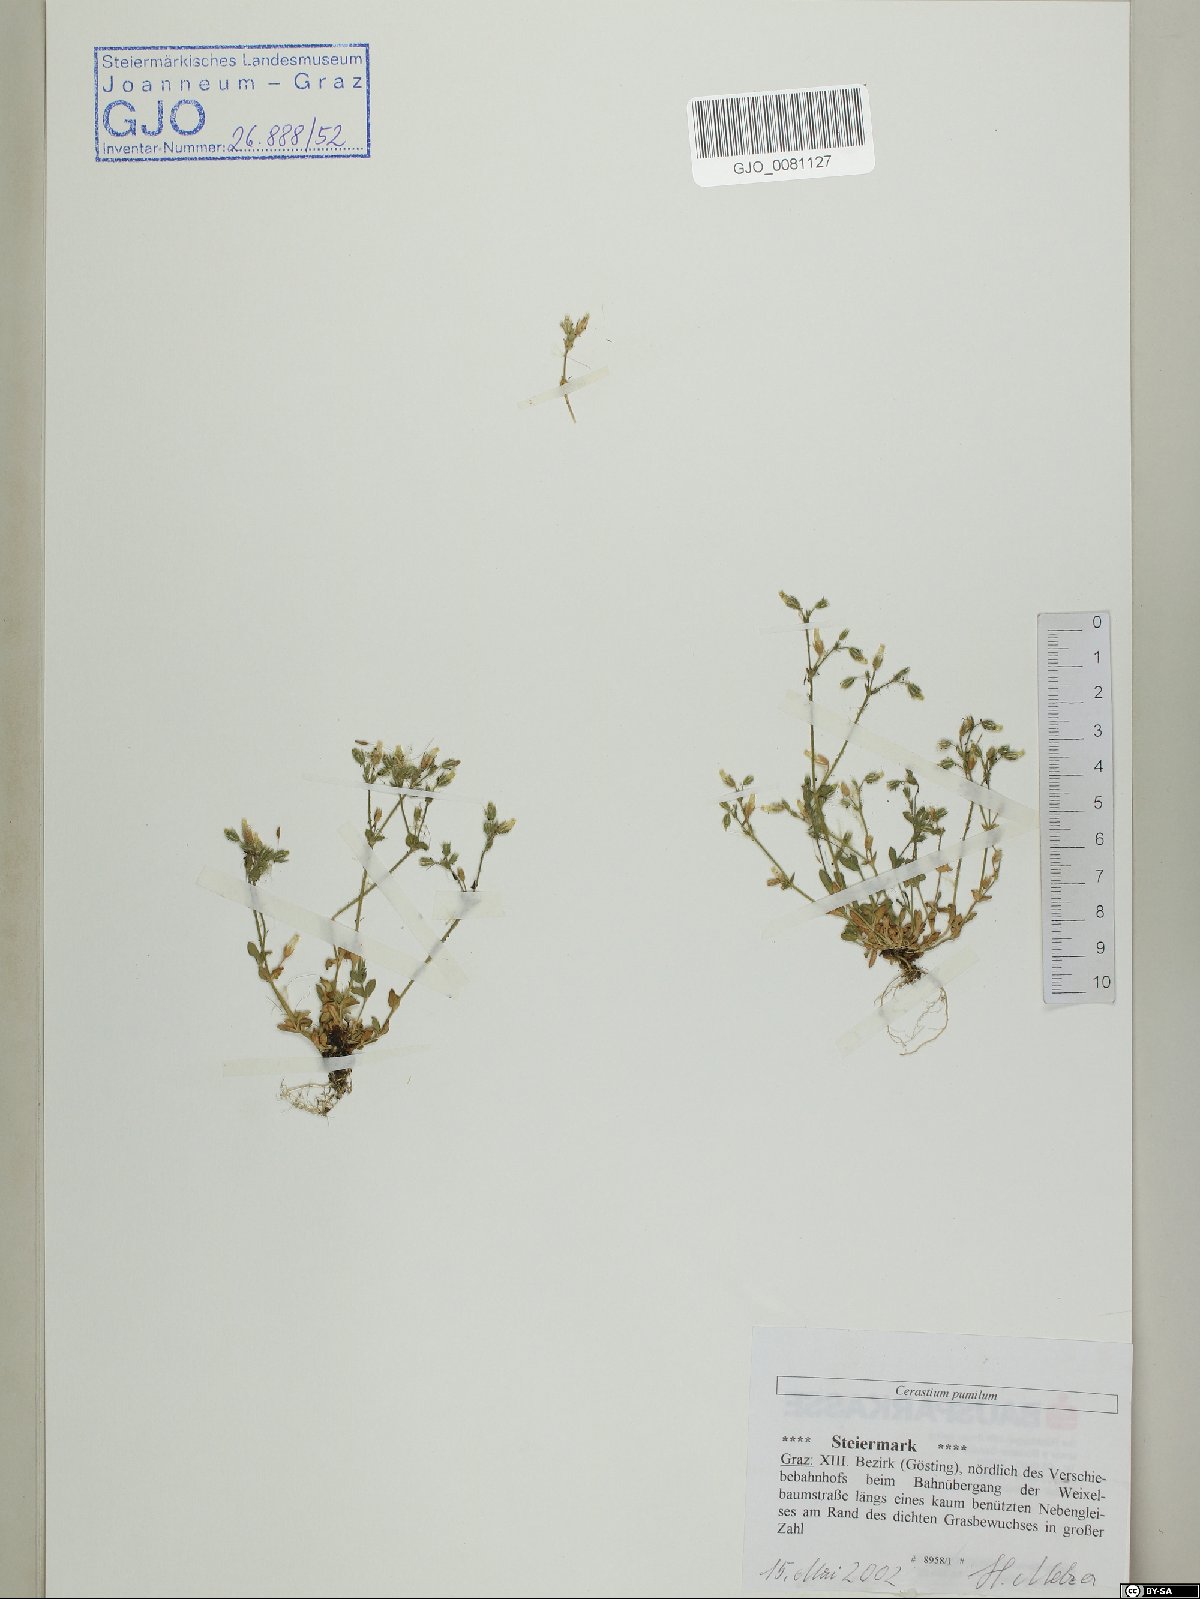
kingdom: Plantae
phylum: Tracheophyta
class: Magnoliopsida
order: Caryophyllales
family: Caryophyllaceae
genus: Cerastium
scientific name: Cerastium pumilum
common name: Dwarf mouse-ear
